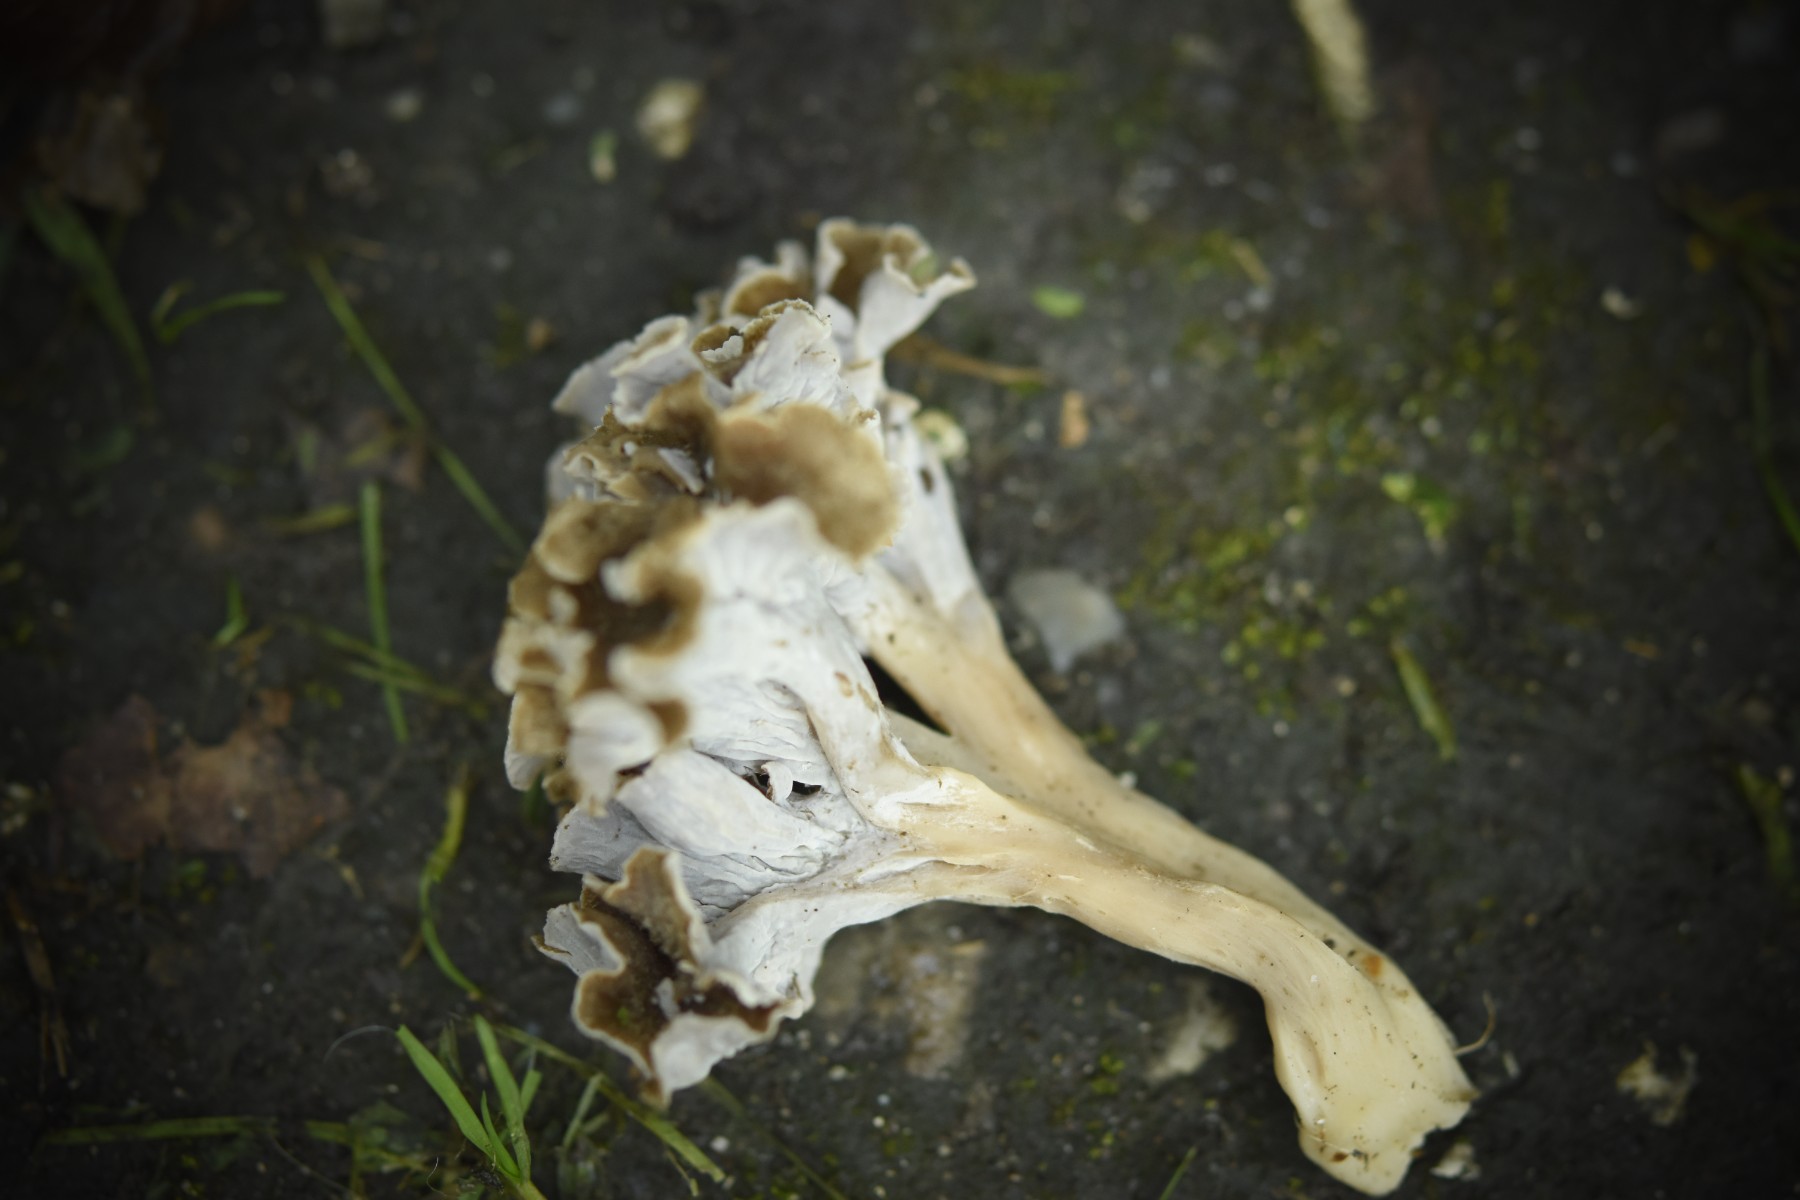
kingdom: Fungi
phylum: Basidiomycota
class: Agaricomycetes
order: Cantharellales
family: Hydnaceae
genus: Craterellus
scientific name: Craterellus undulatus
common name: liden kantarel
